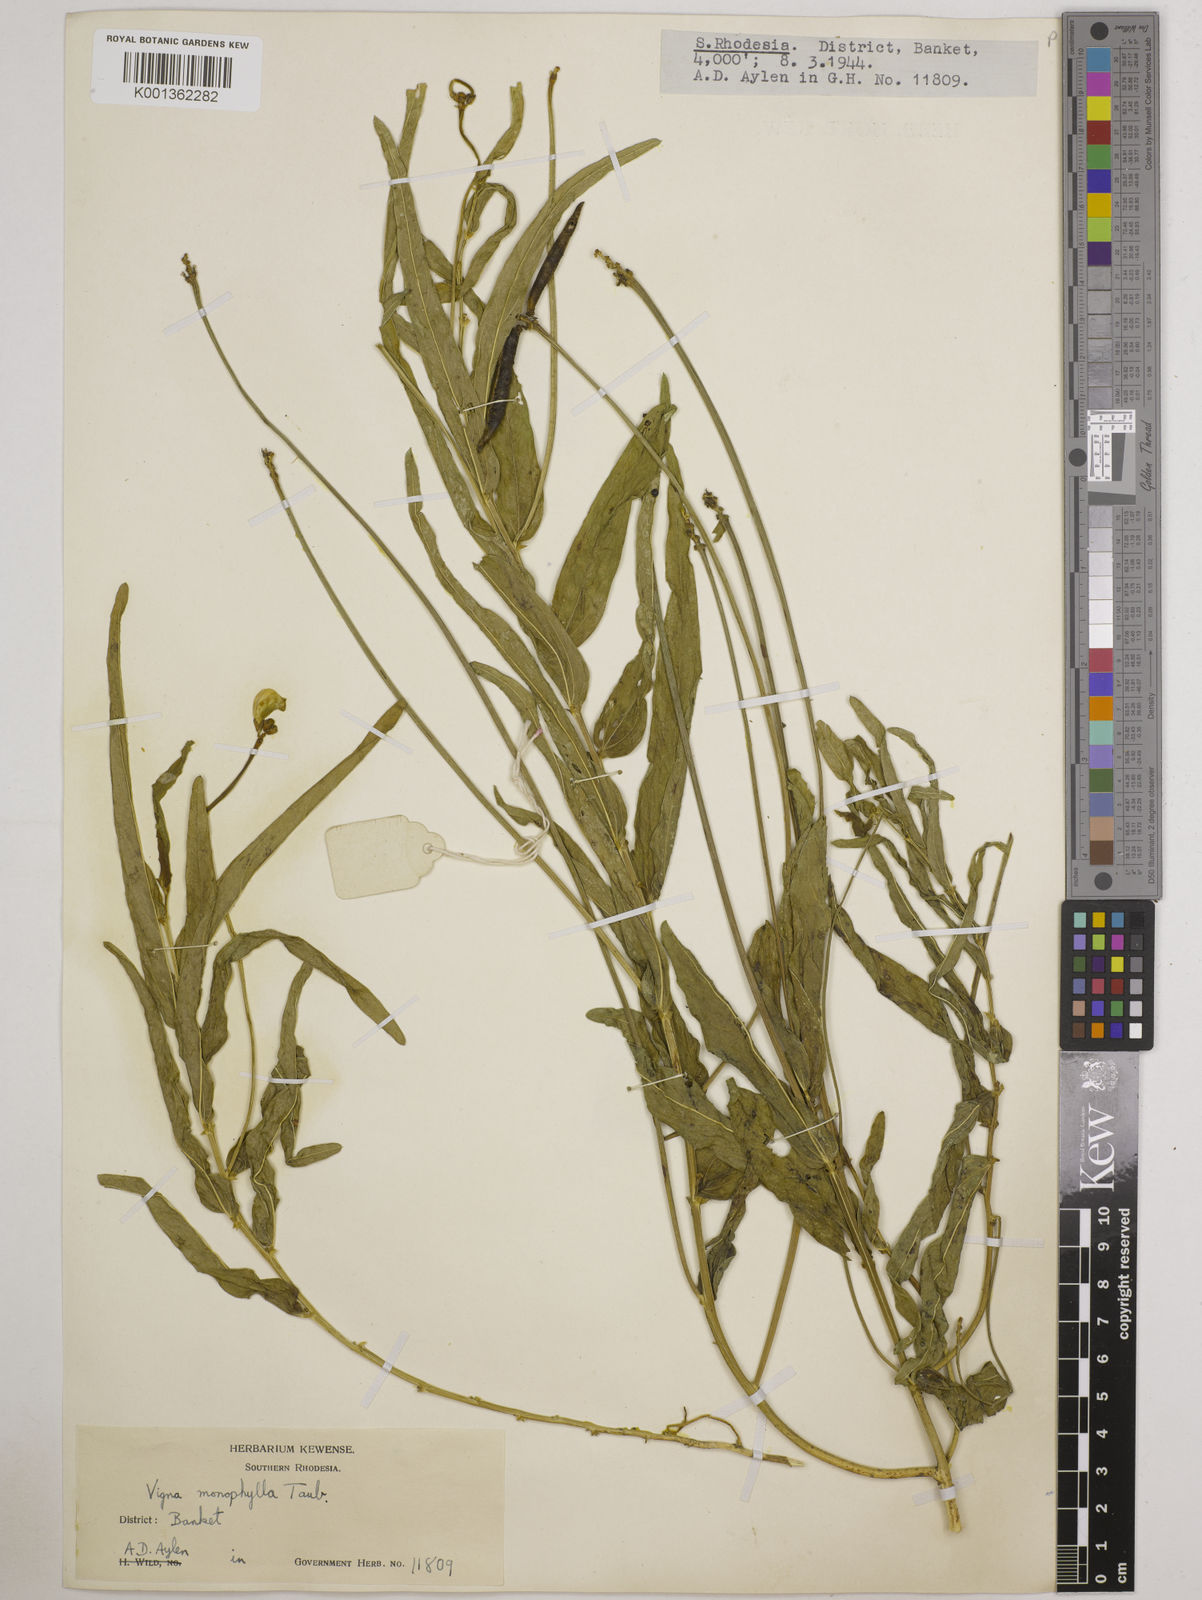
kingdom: Plantae
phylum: Tracheophyta
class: Magnoliopsida
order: Fabales
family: Fabaceae
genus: Vigna
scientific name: Vigna monophylla
